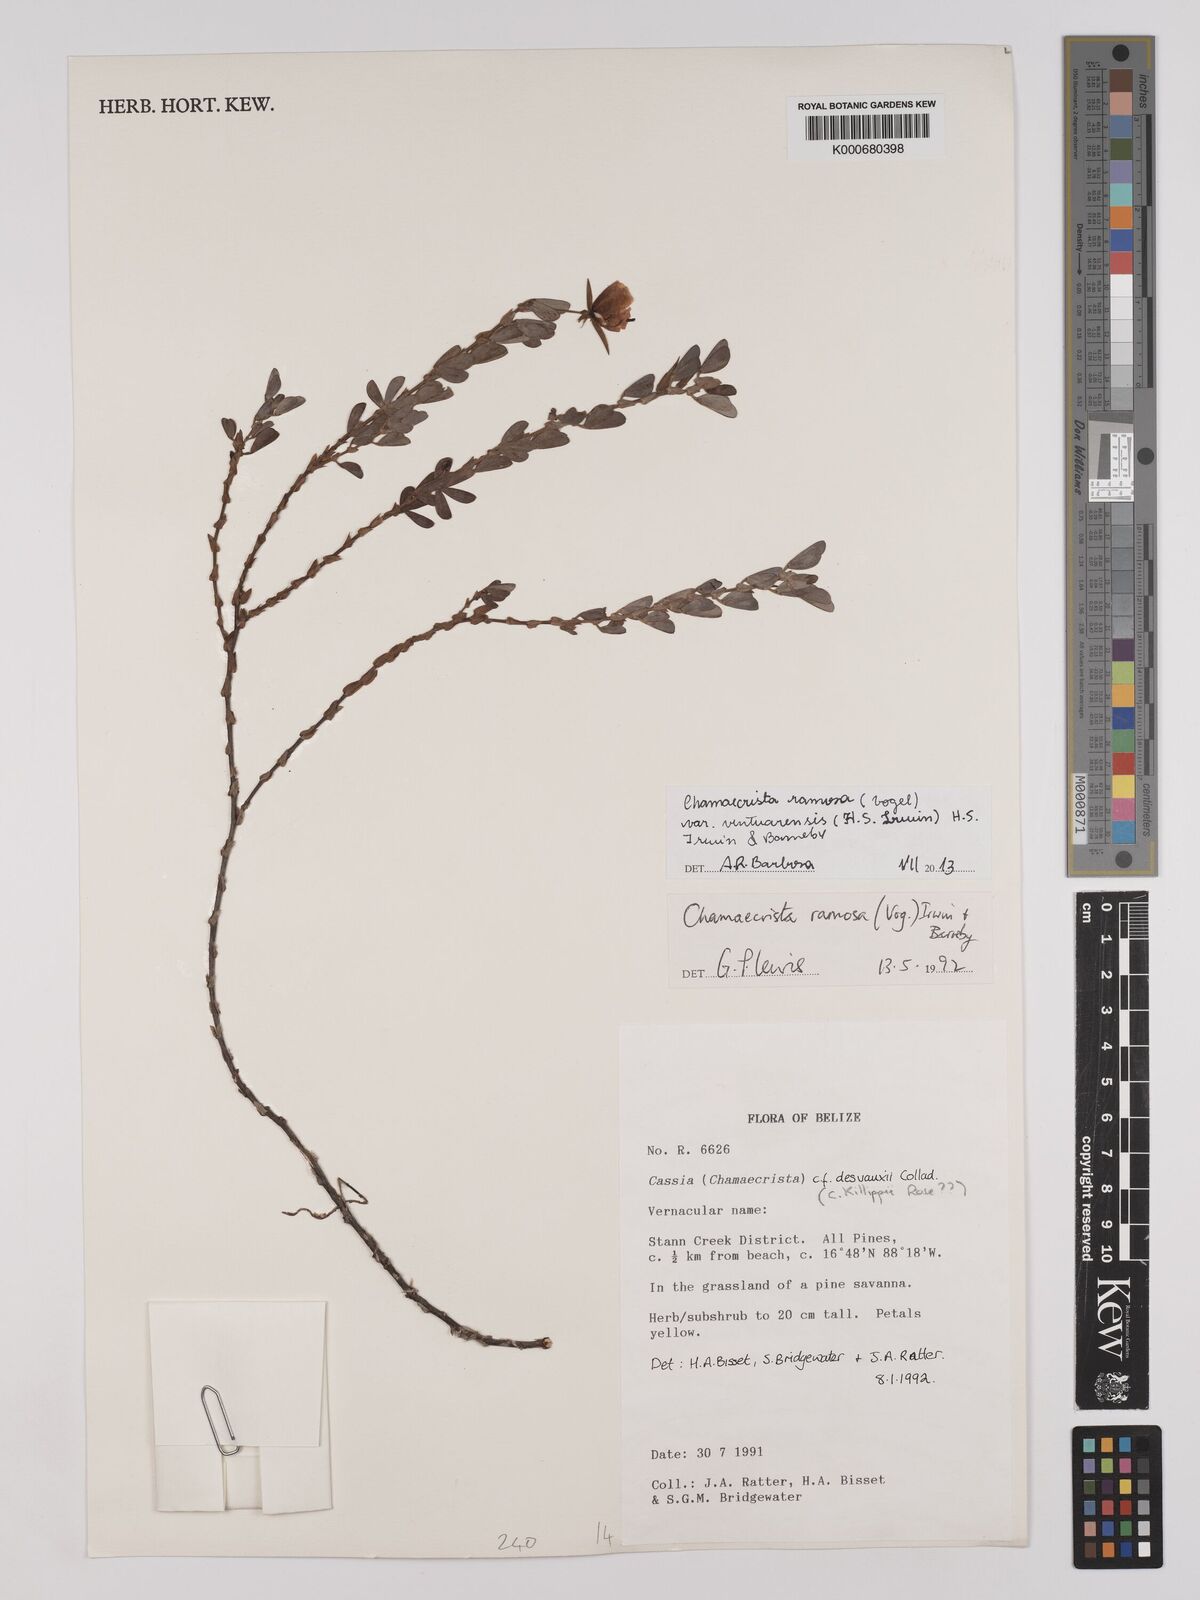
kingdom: Plantae
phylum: Tracheophyta
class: Magnoliopsida
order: Fabales
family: Fabaceae
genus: Chamaecrista
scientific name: Chamaecrista ramosa
